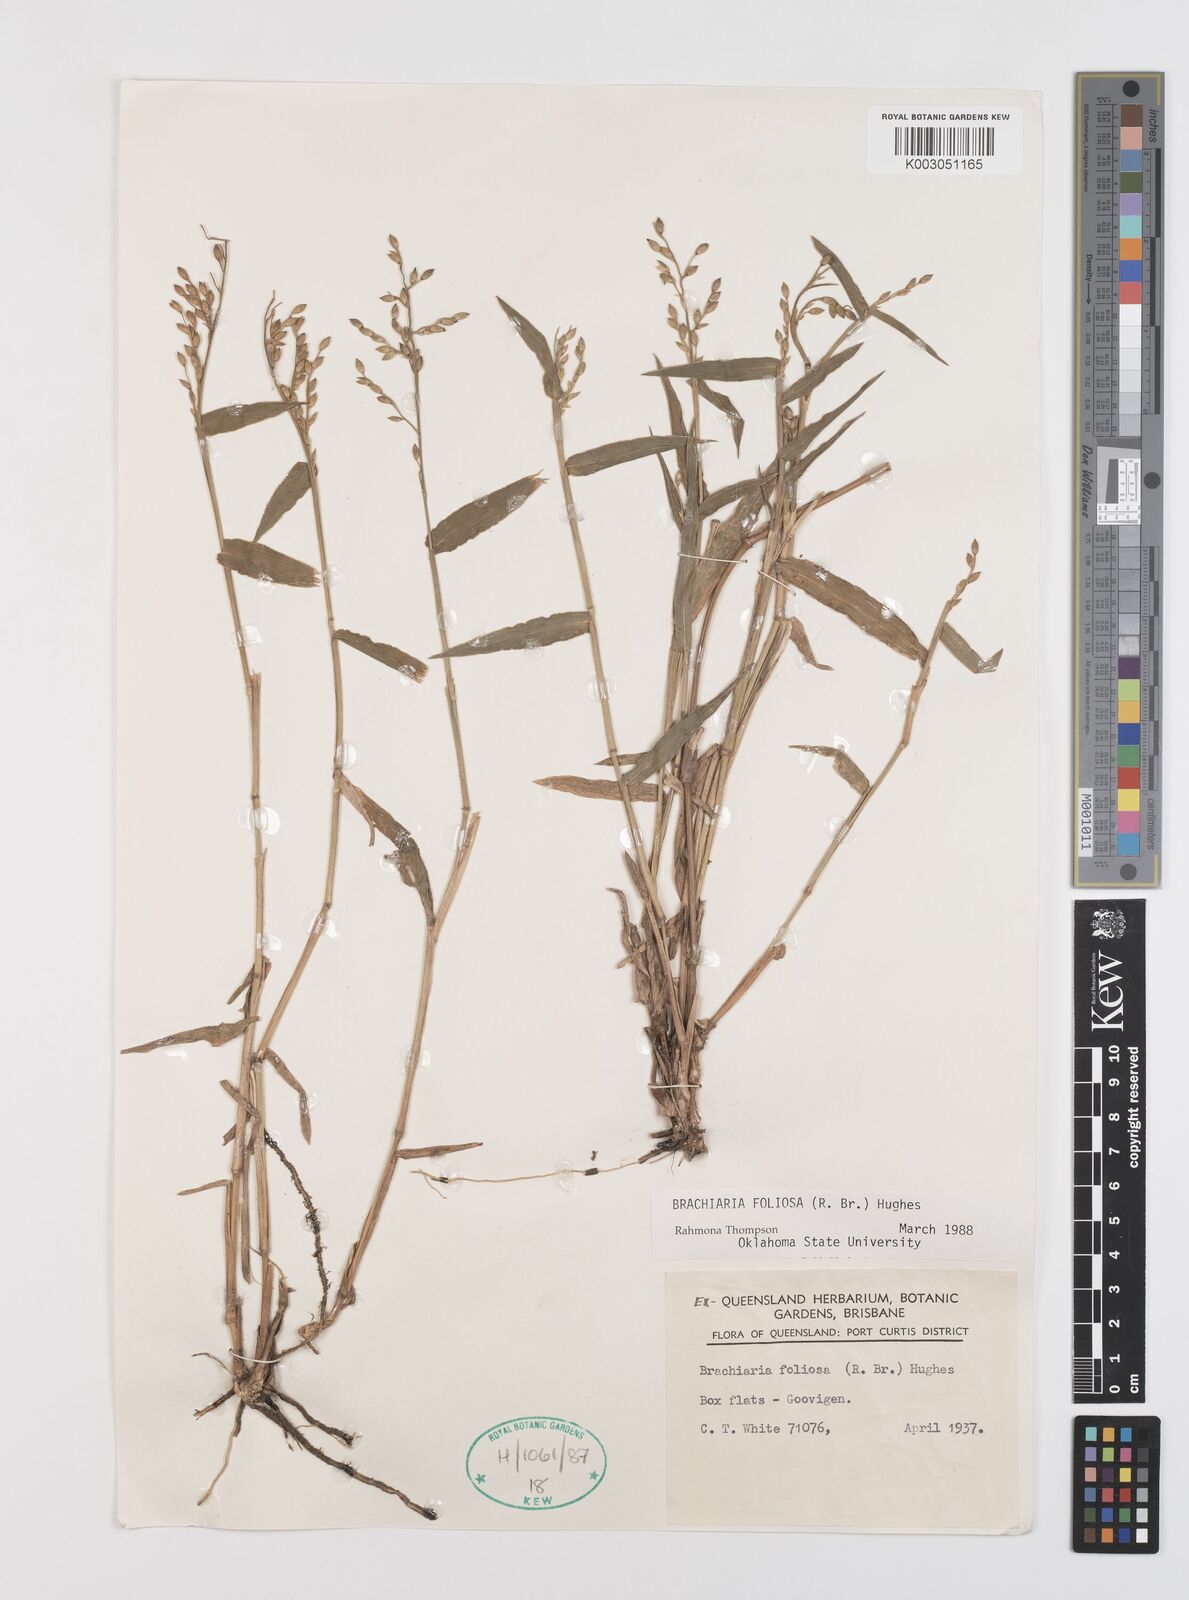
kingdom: Plantae
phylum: Tracheophyta
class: Liliopsida
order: Poales
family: Poaceae
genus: Urochloa
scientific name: Urochloa foliosa
